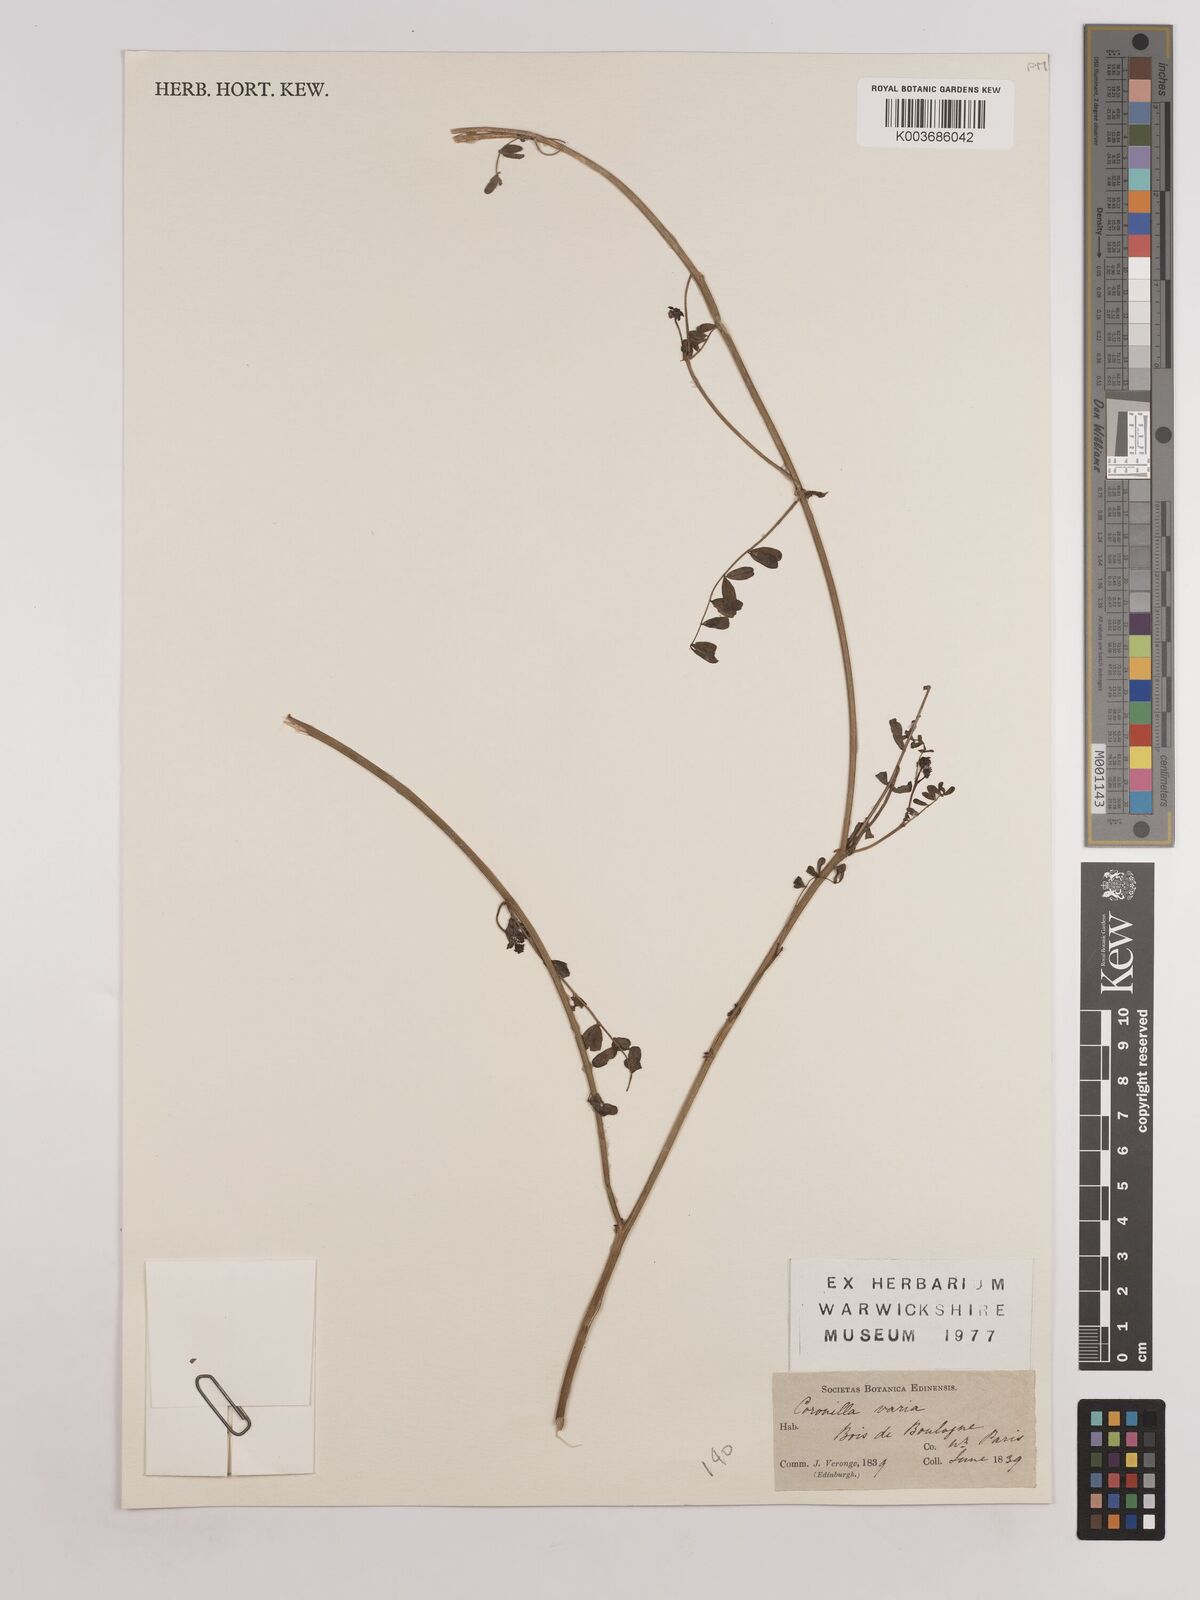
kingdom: Plantae
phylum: Tracheophyta
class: Magnoliopsida
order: Fabales
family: Fabaceae
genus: Coronilla
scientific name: Coronilla varia
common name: Crownvetch
